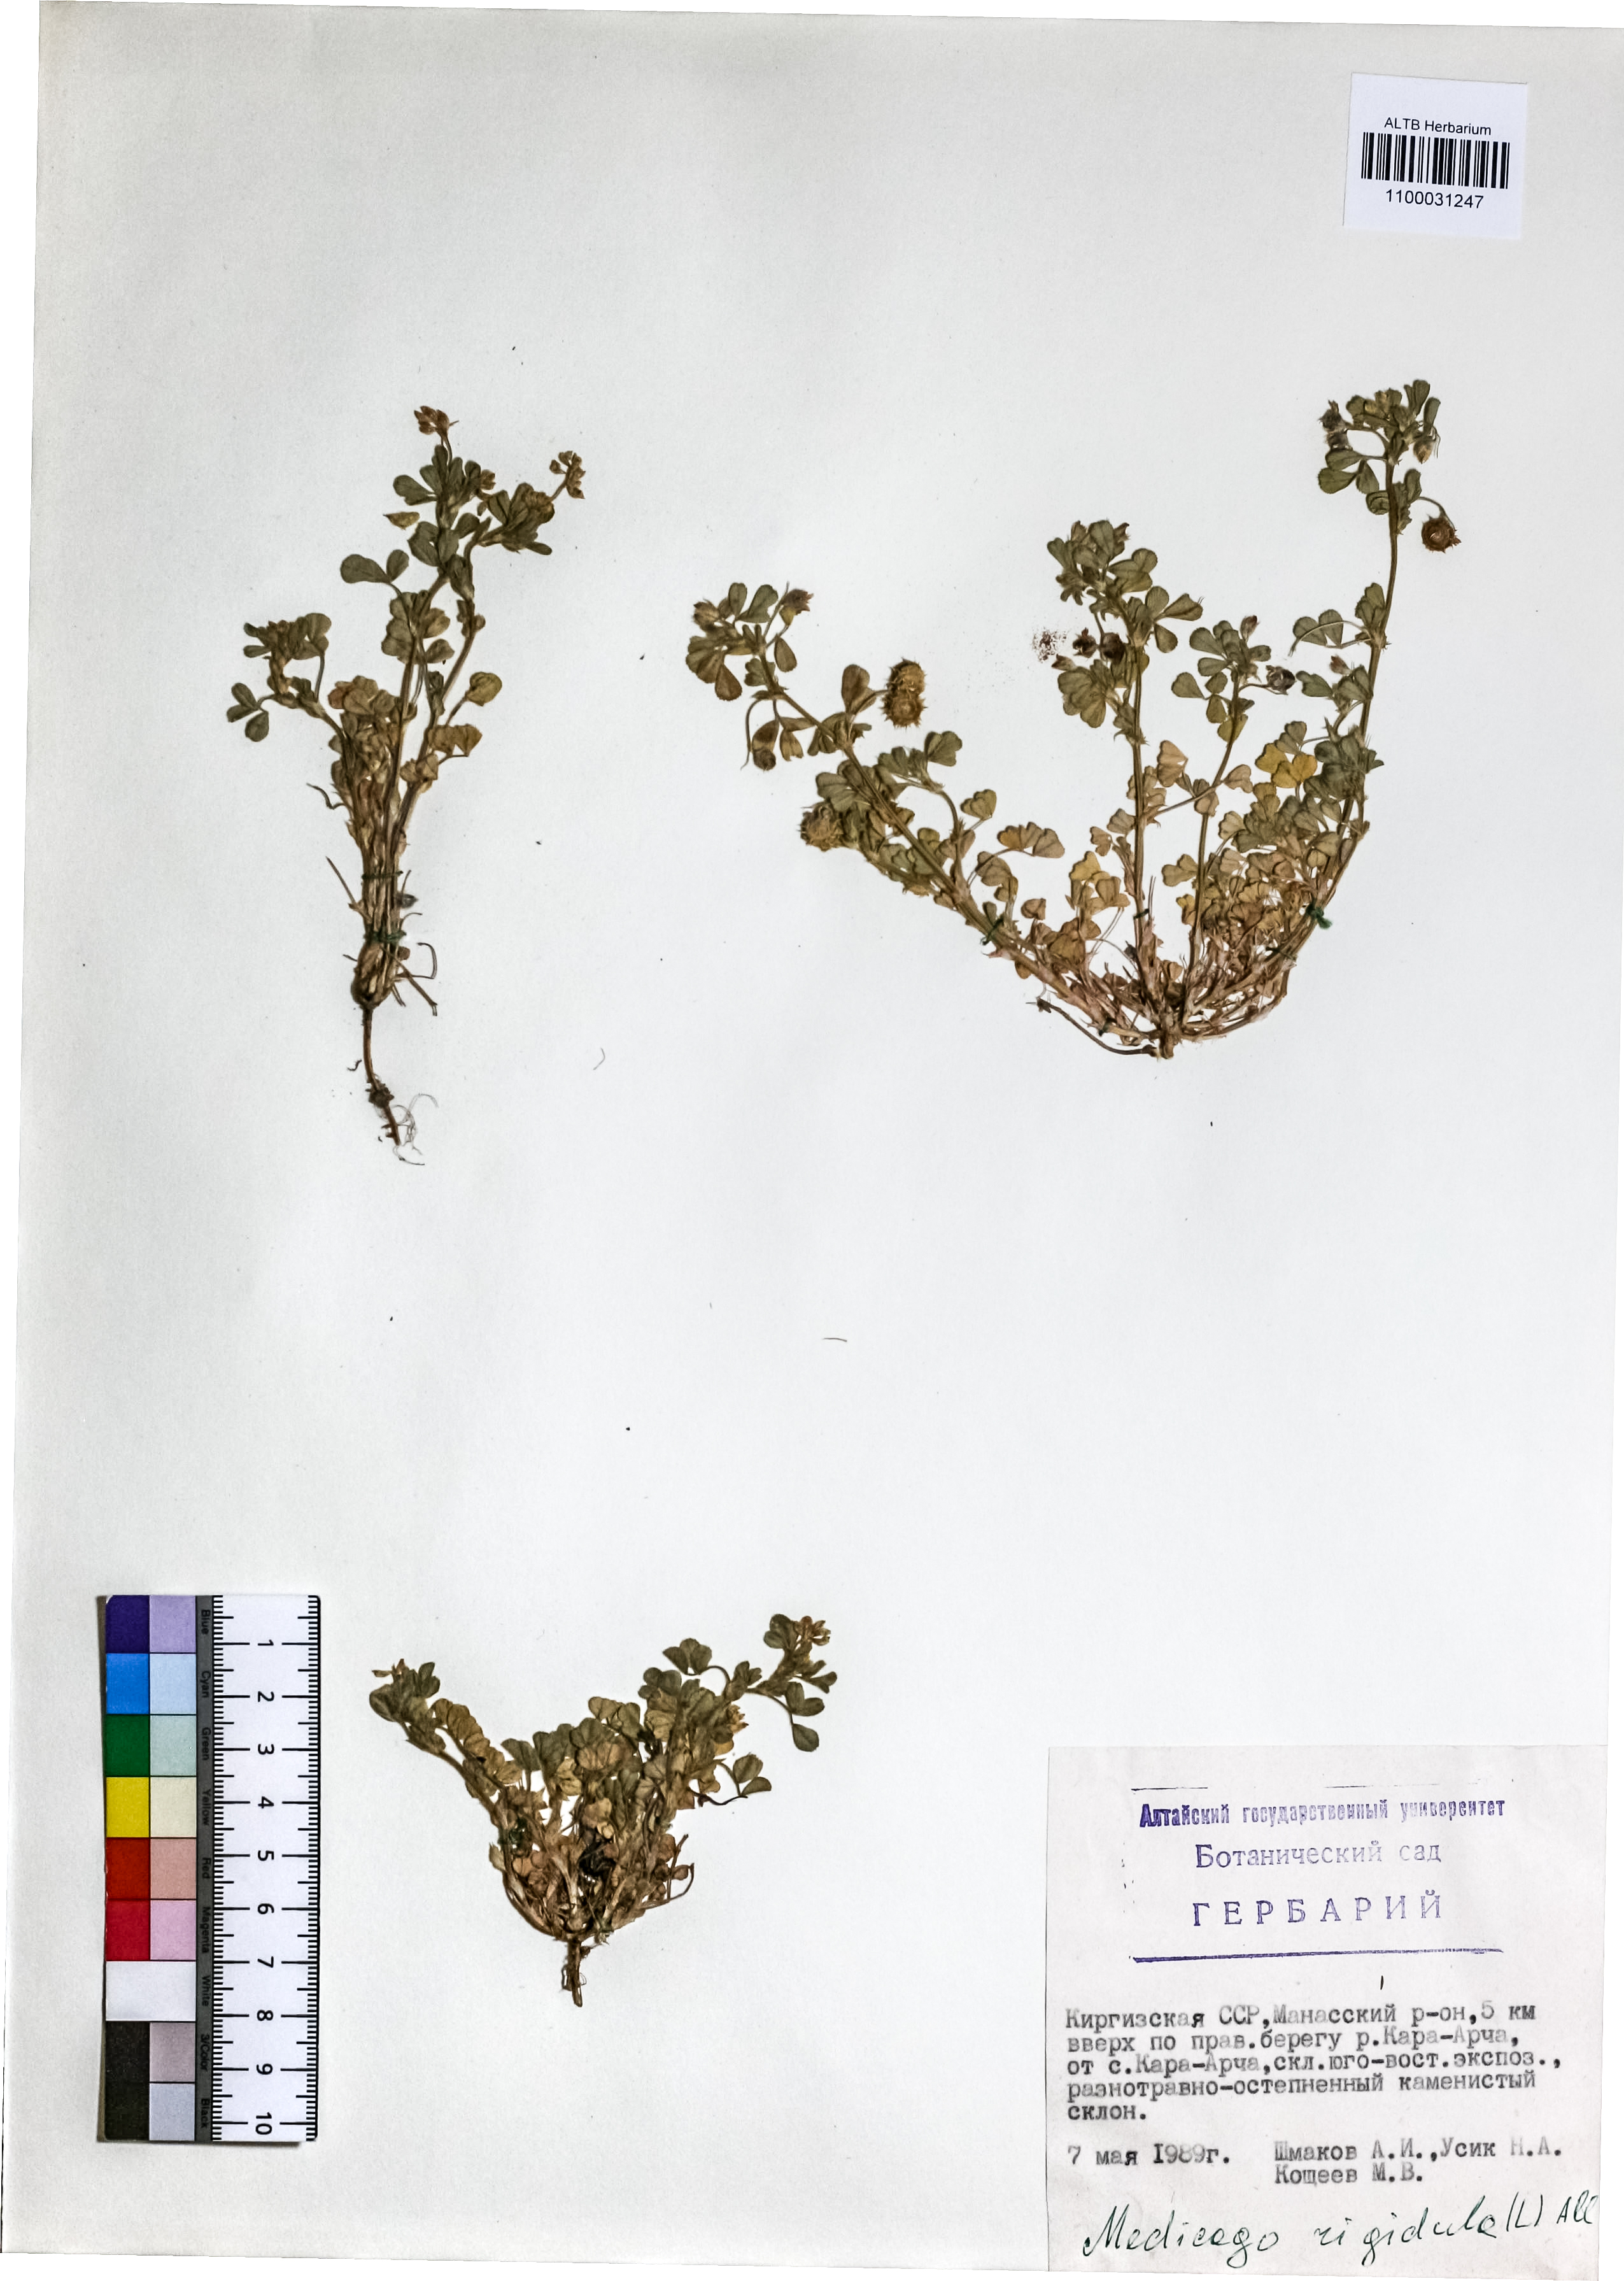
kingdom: Plantae
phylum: Tracheophyta
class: Magnoliopsida
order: Fabales
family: Fabaceae
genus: Medicago
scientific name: Medicago rigidula
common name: Tifton medic
